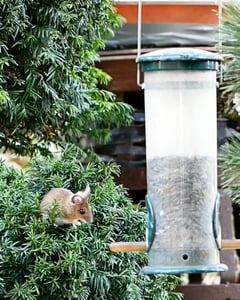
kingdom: Animalia
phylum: Chordata
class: Mammalia
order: Rodentia
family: Muridae
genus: Apodemus
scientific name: Apodemus
